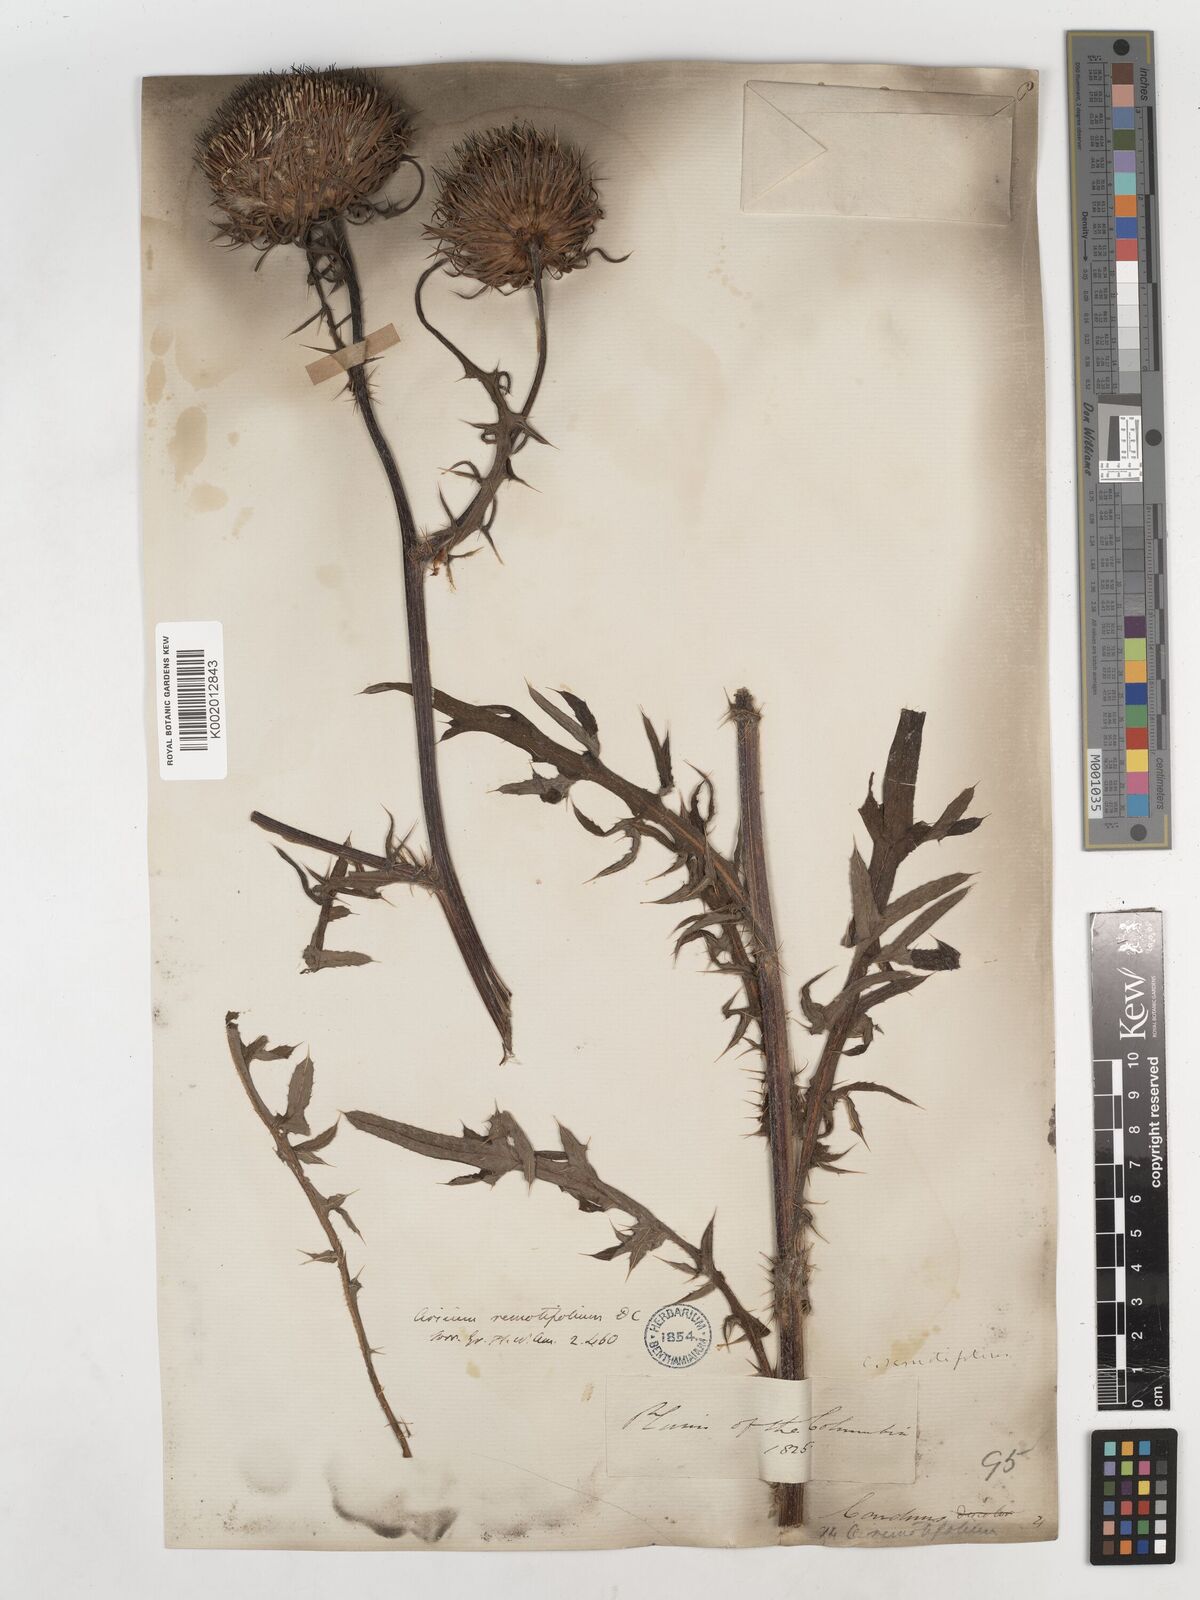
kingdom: Plantae
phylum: Tracheophyta
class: Magnoliopsida
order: Asterales
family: Asteraceae
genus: Cirsium
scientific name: Cirsium remotifolium
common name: Remote-leaf thistle
